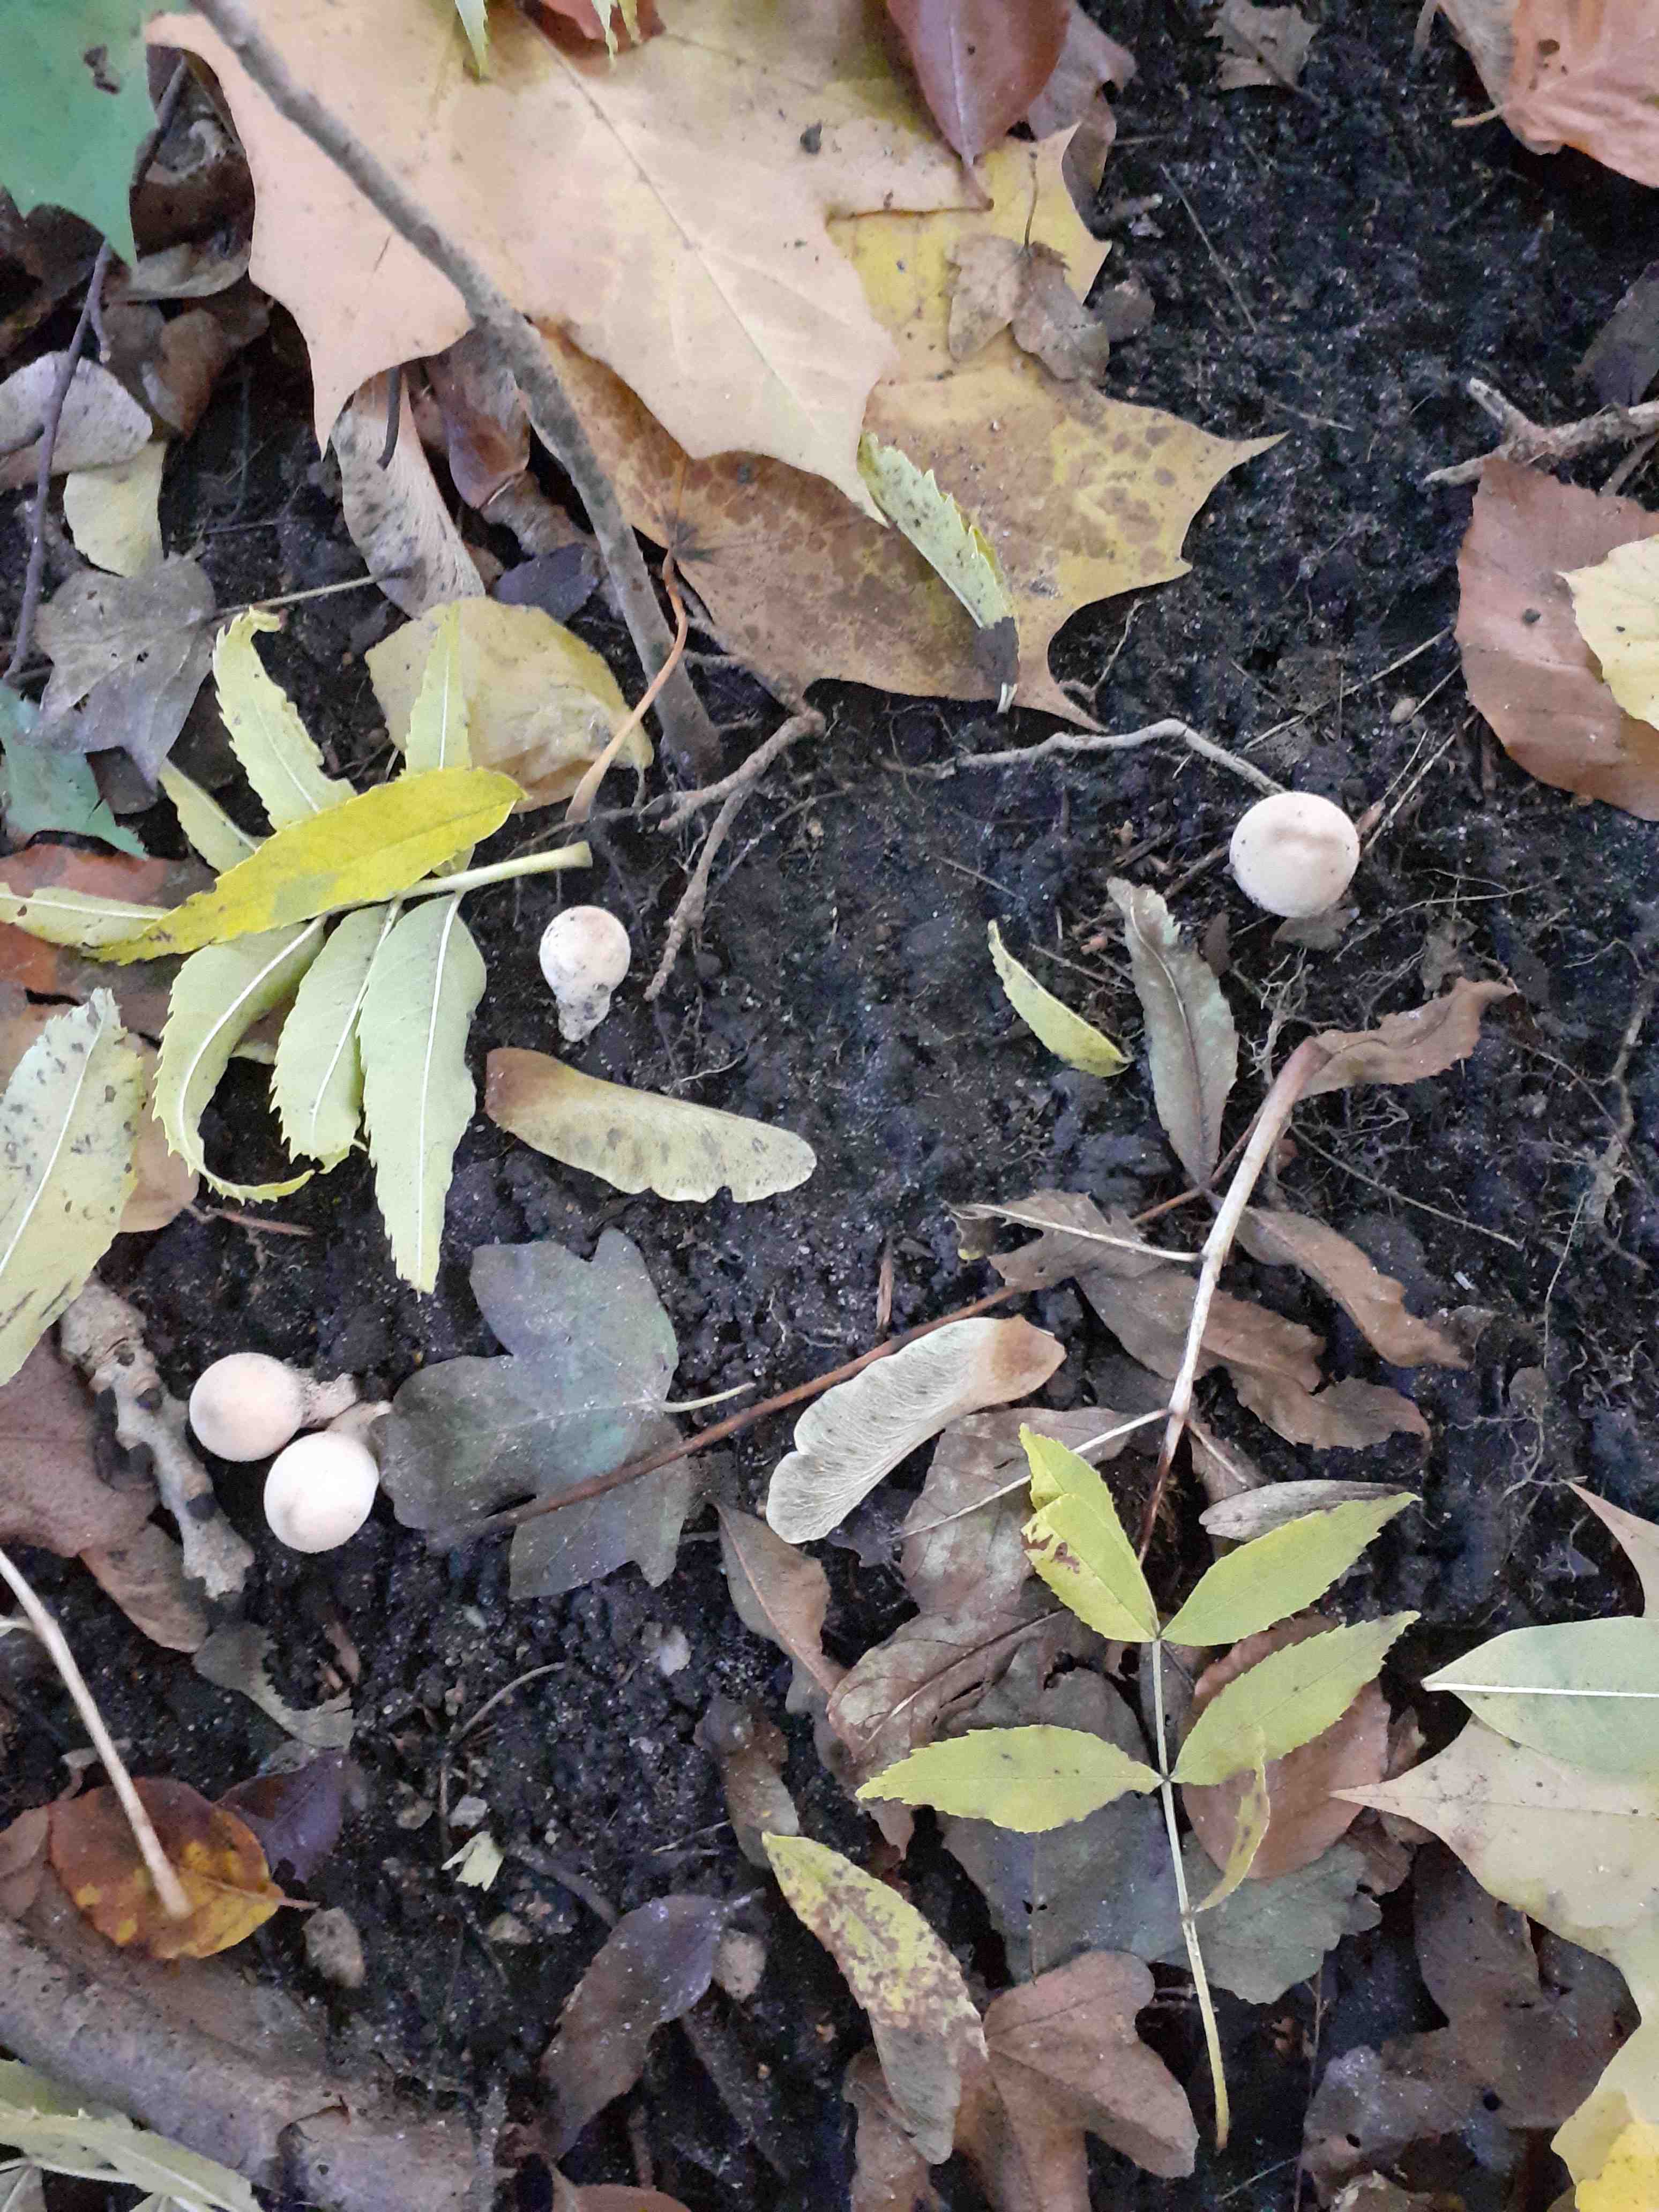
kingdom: Fungi
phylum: Basidiomycota
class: Agaricomycetes
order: Agaricales
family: Lycoperdaceae
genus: Apioperdon
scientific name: Apioperdon pyriforme
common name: pære-støvbold
